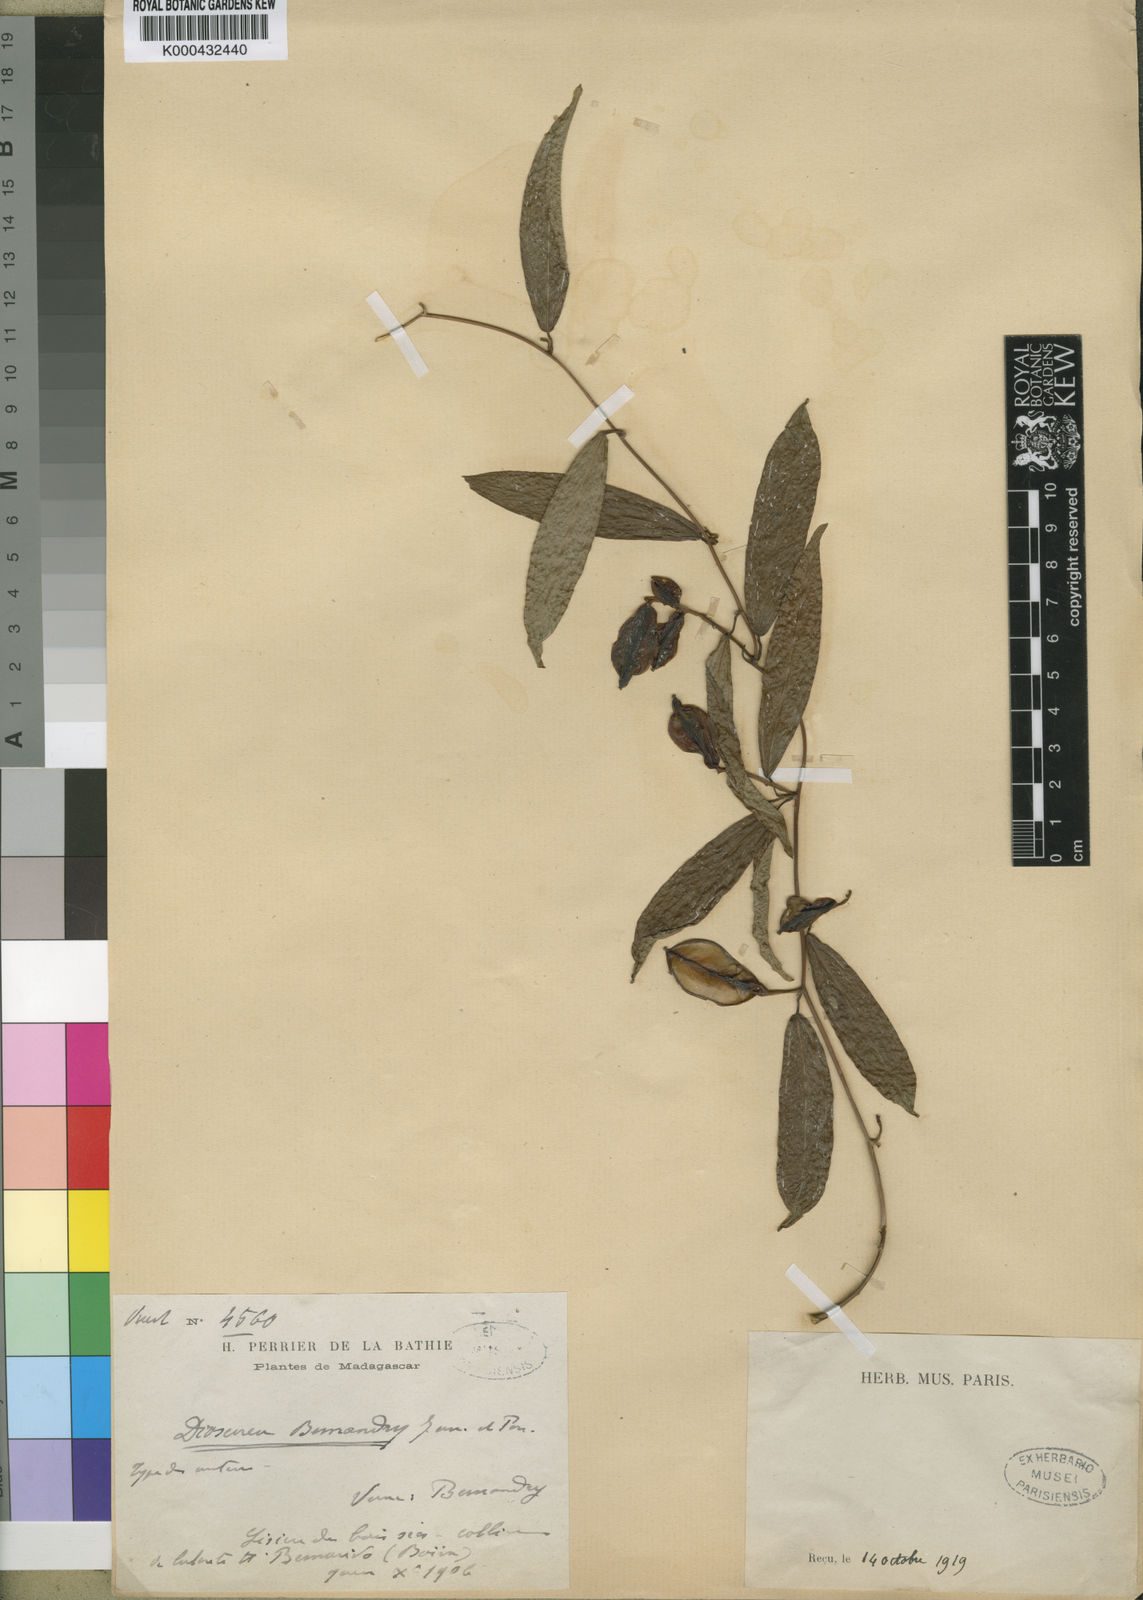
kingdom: Plantae
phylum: Tracheophyta
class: Liliopsida
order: Dioscoreales
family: Dioscoreaceae
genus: Dioscorea
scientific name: Dioscorea bemandry
